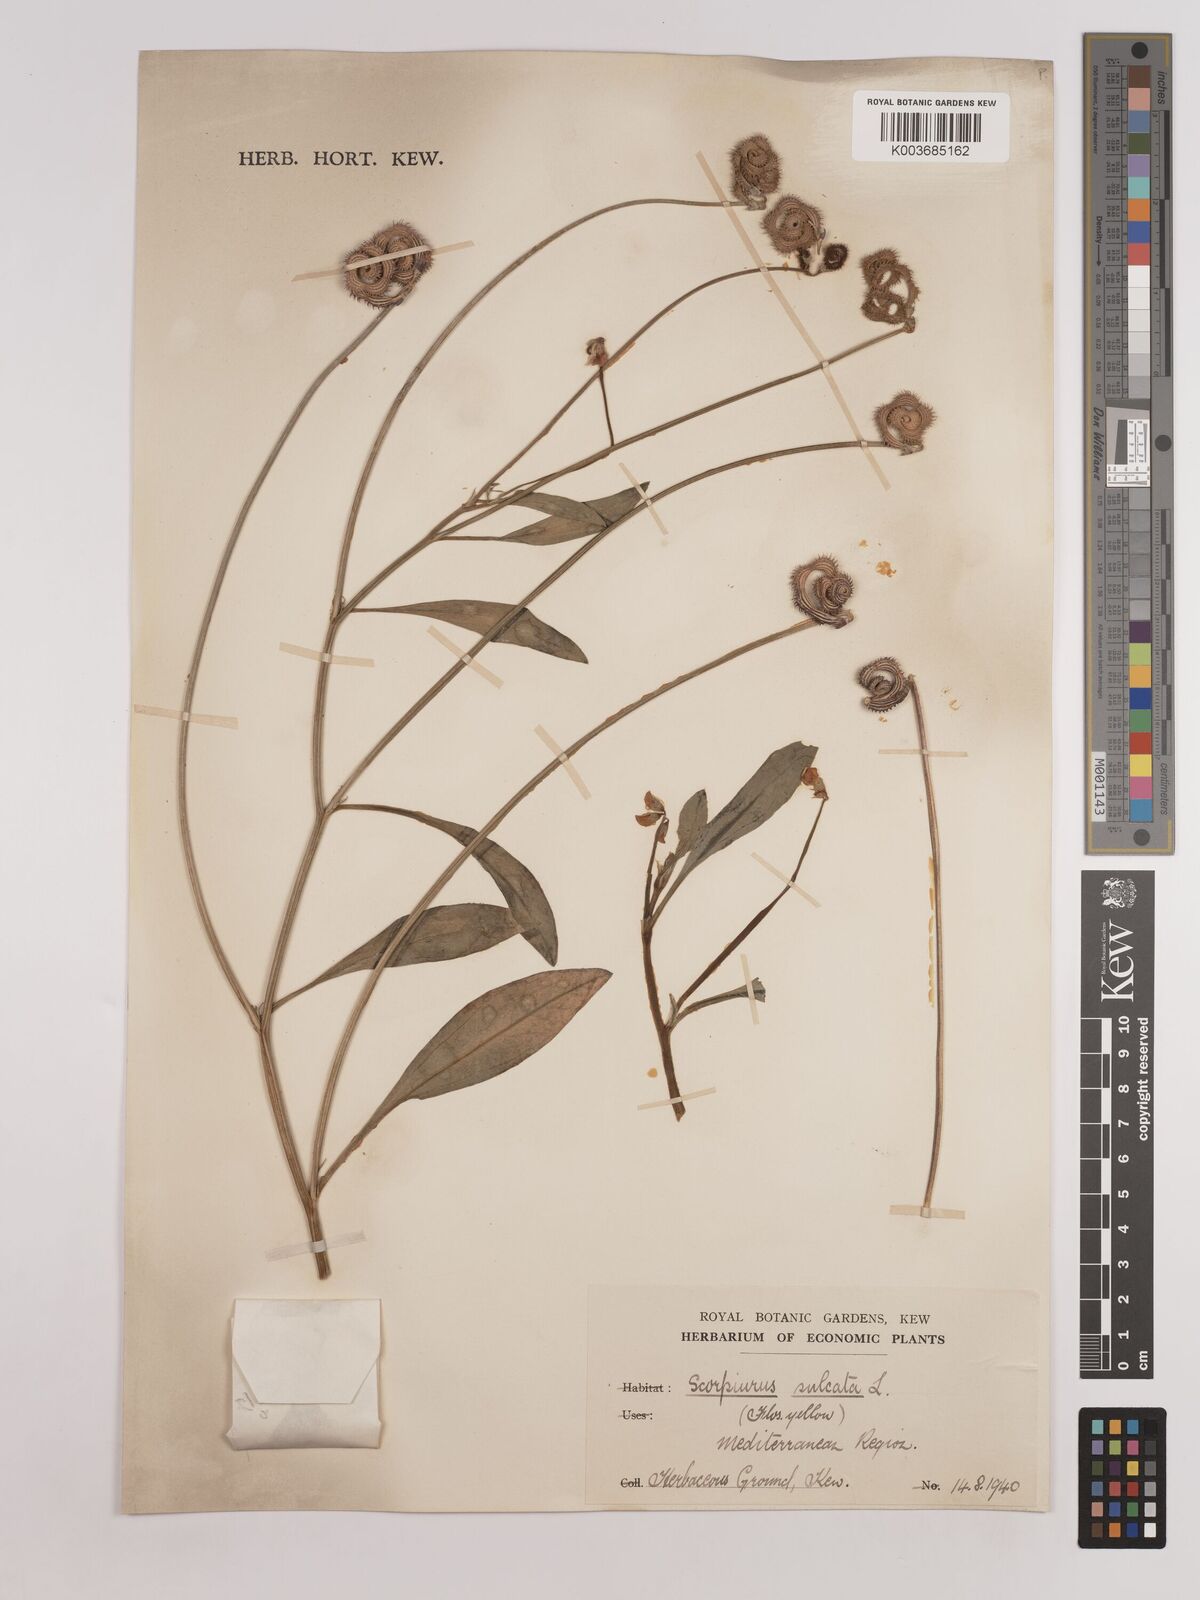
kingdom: Plantae
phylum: Tracheophyta
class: Magnoliopsida
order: Fabales
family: Fabaceae
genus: Scorpiurus
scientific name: Scorpiurus muricatus
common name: Caterpillar-plant
